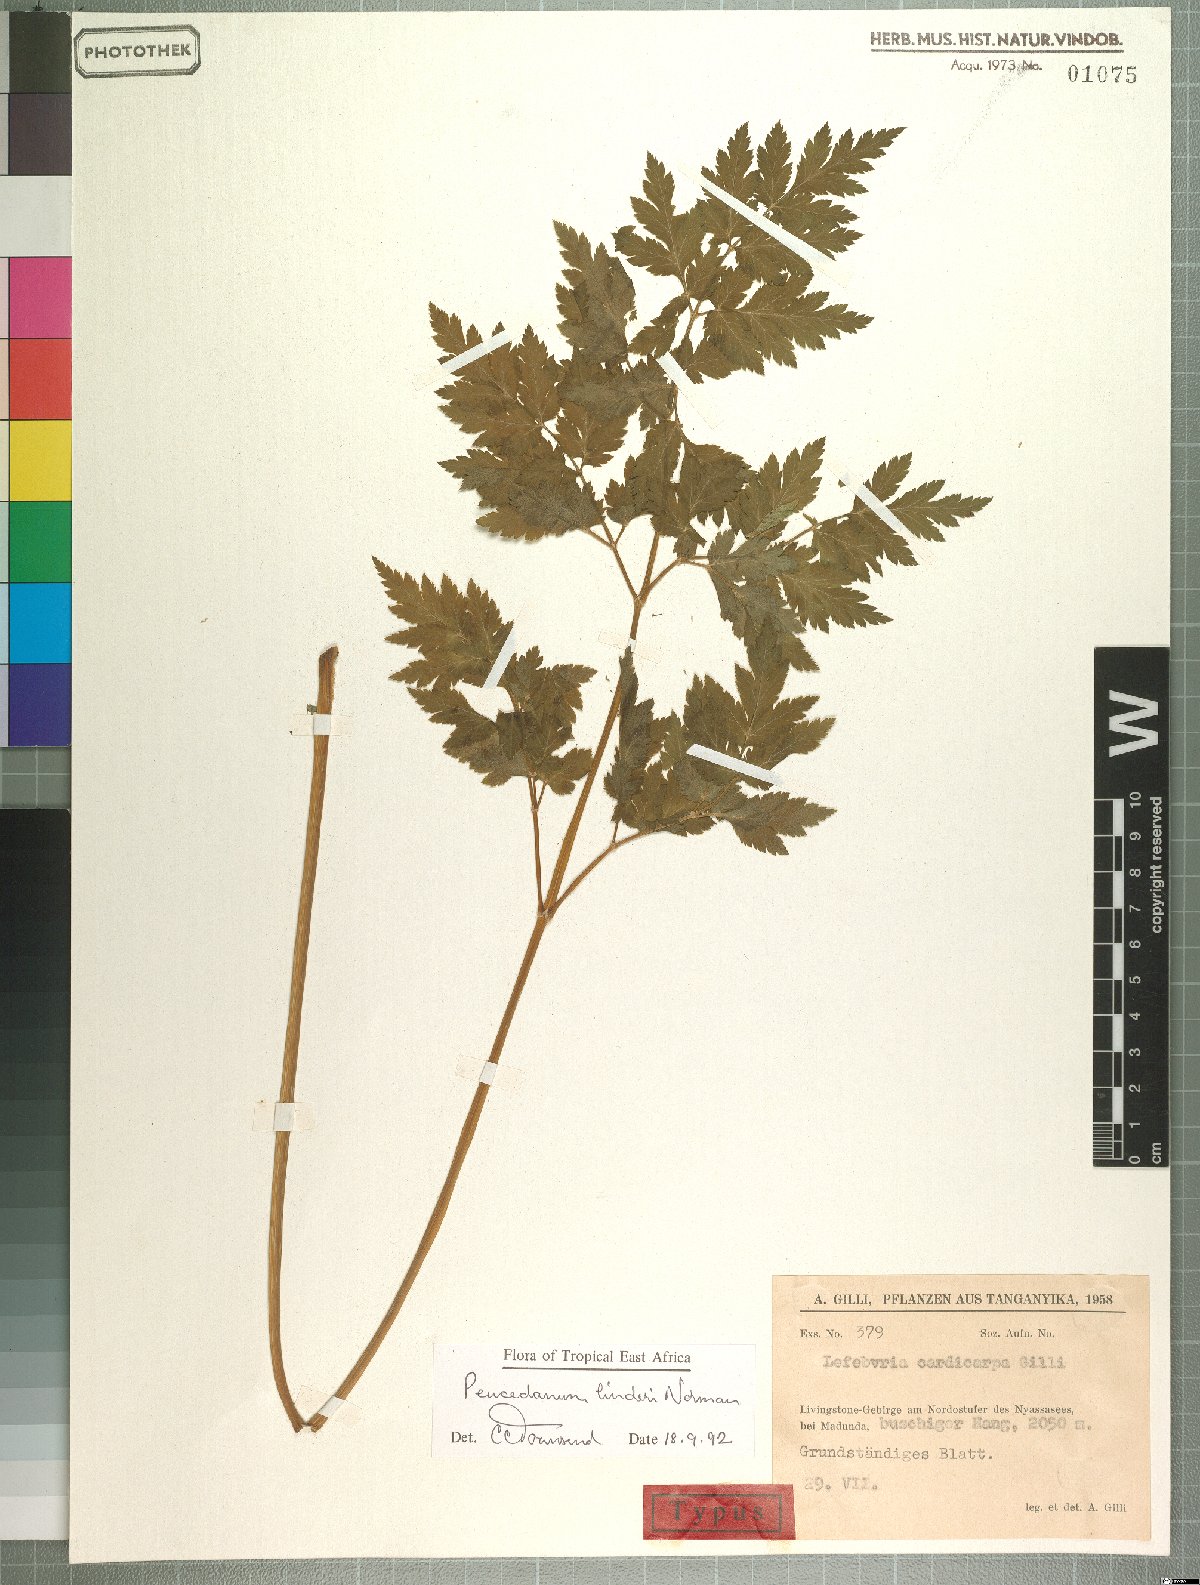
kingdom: Plantae
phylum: Tracheophyta
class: Magnoliopsida
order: Apiales
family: Apiaceae
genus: Afroligusticum
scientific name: Afroligusticum linderi
